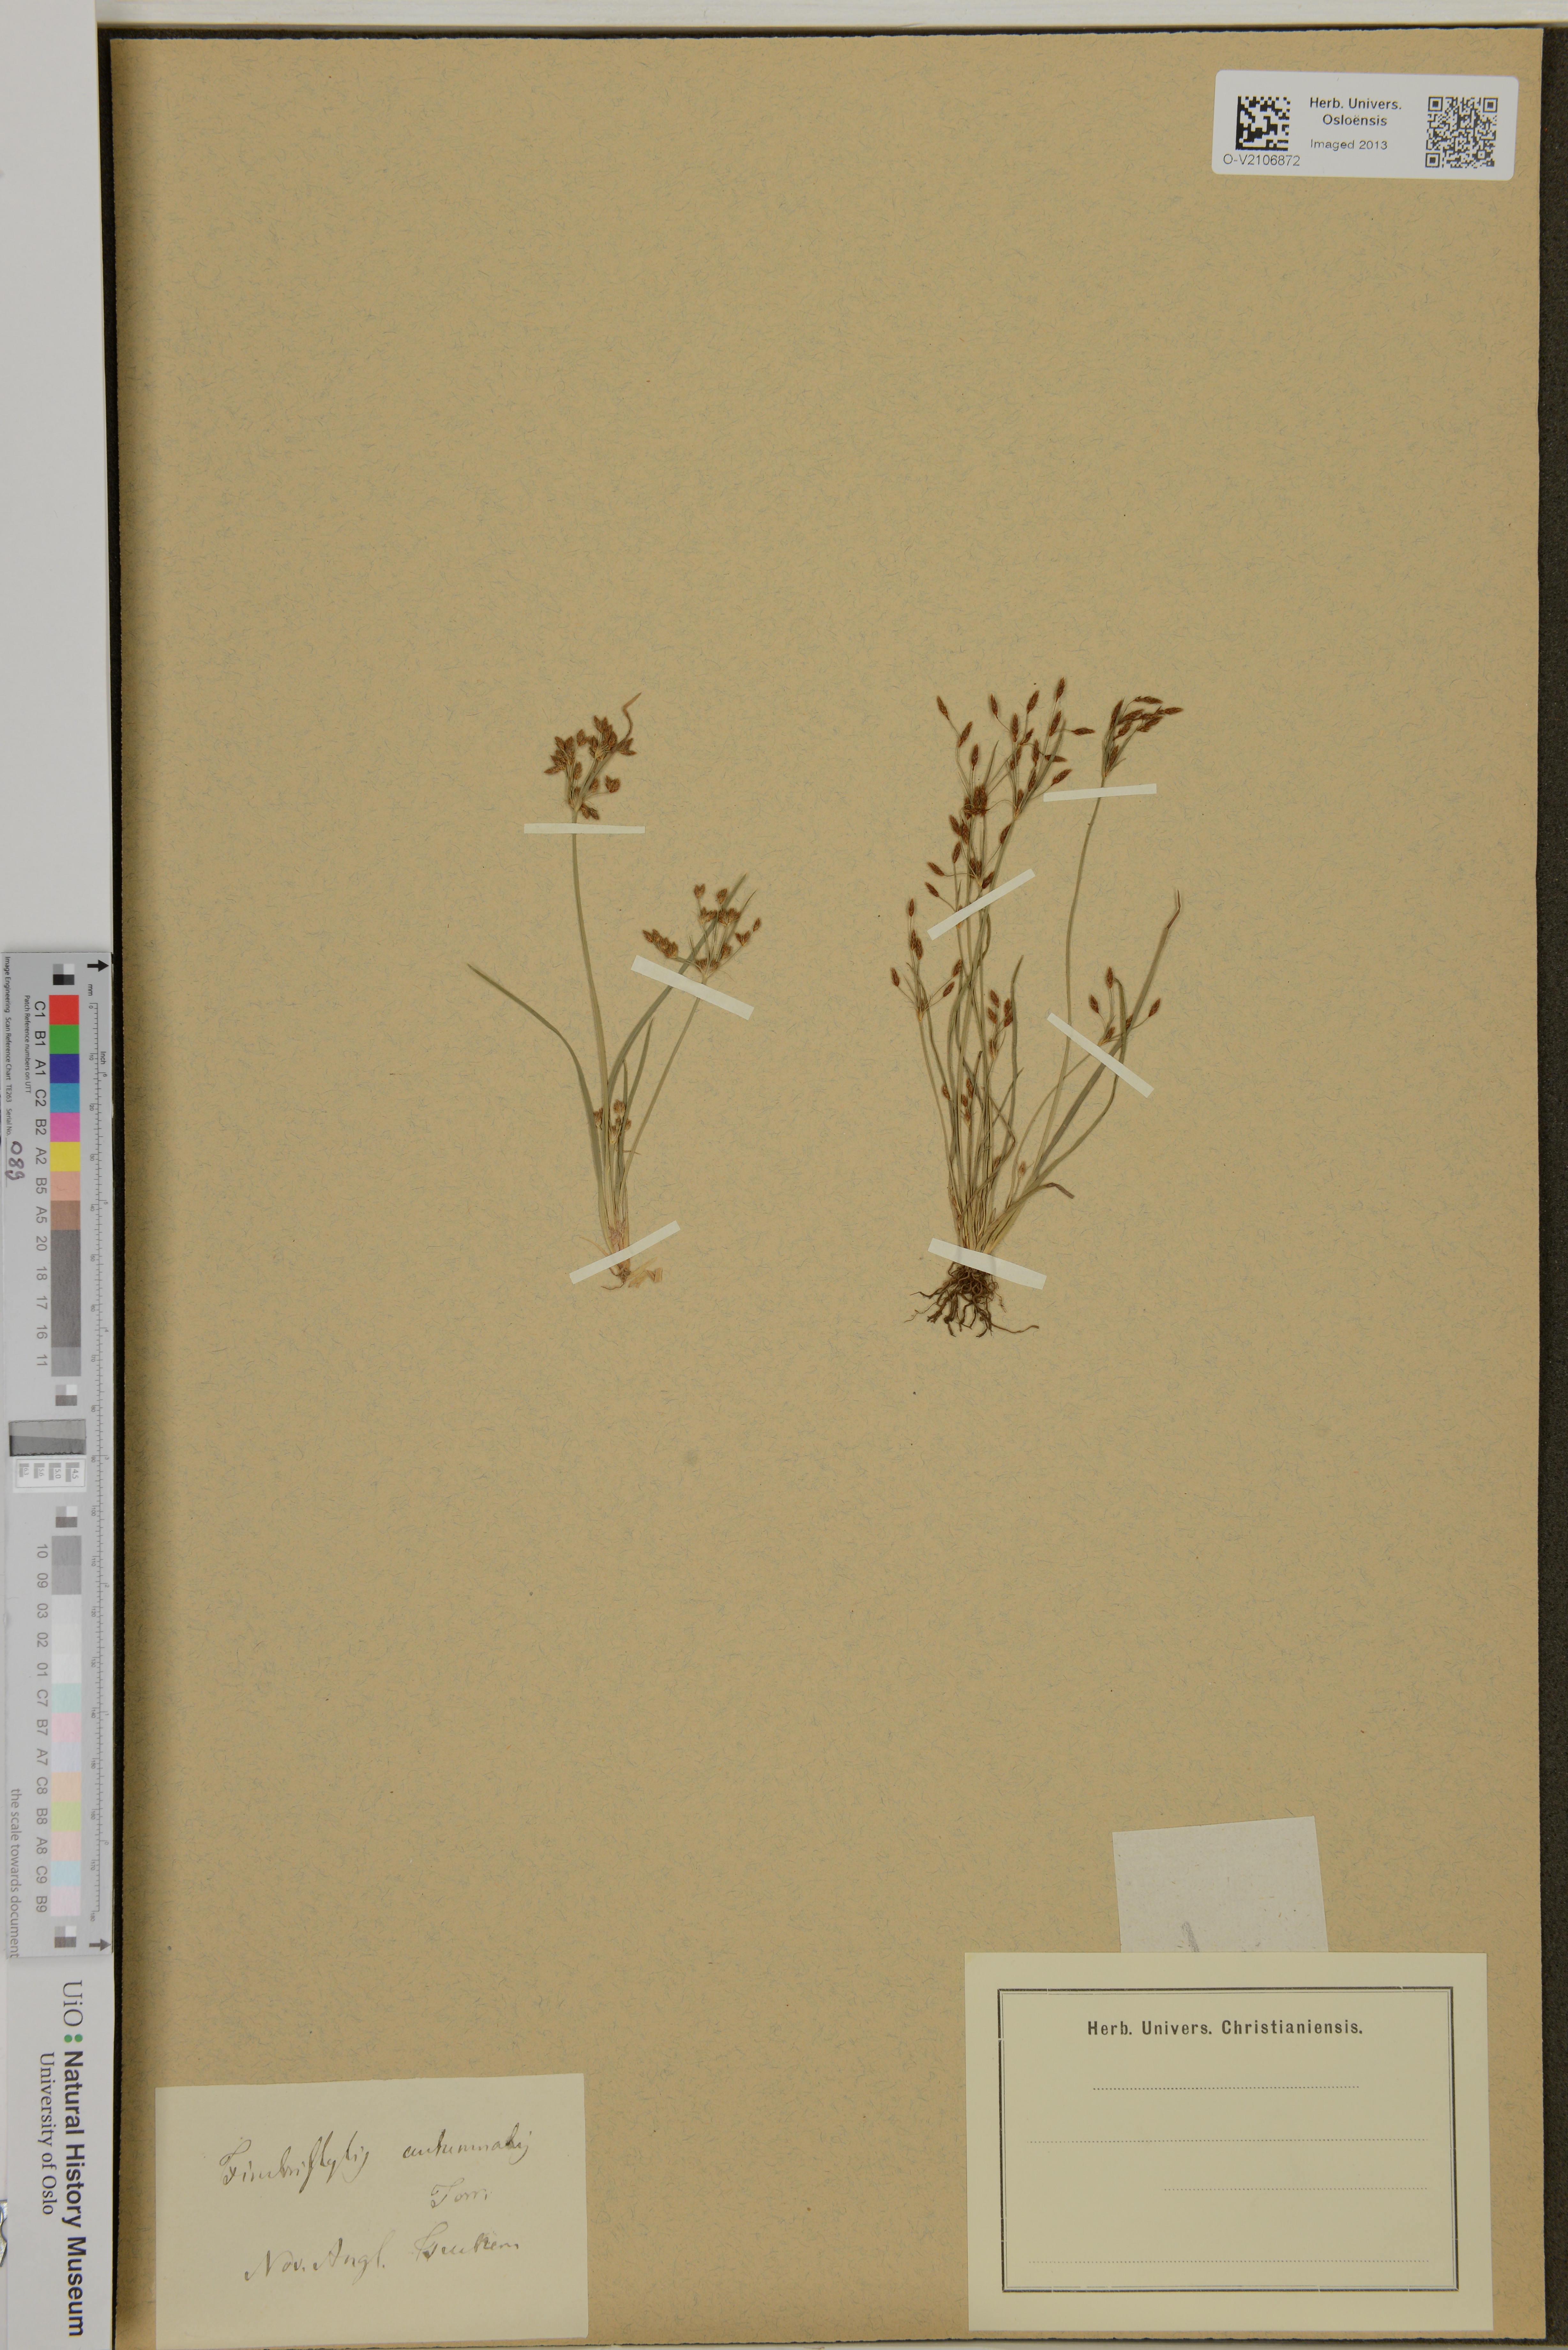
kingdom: Plantae
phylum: Tracheophyta
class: Liliopsida
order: Poales
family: Cyperaceae
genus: Fimbristylis
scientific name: Fimbristylis autumnalis
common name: Slender fimbristylis
